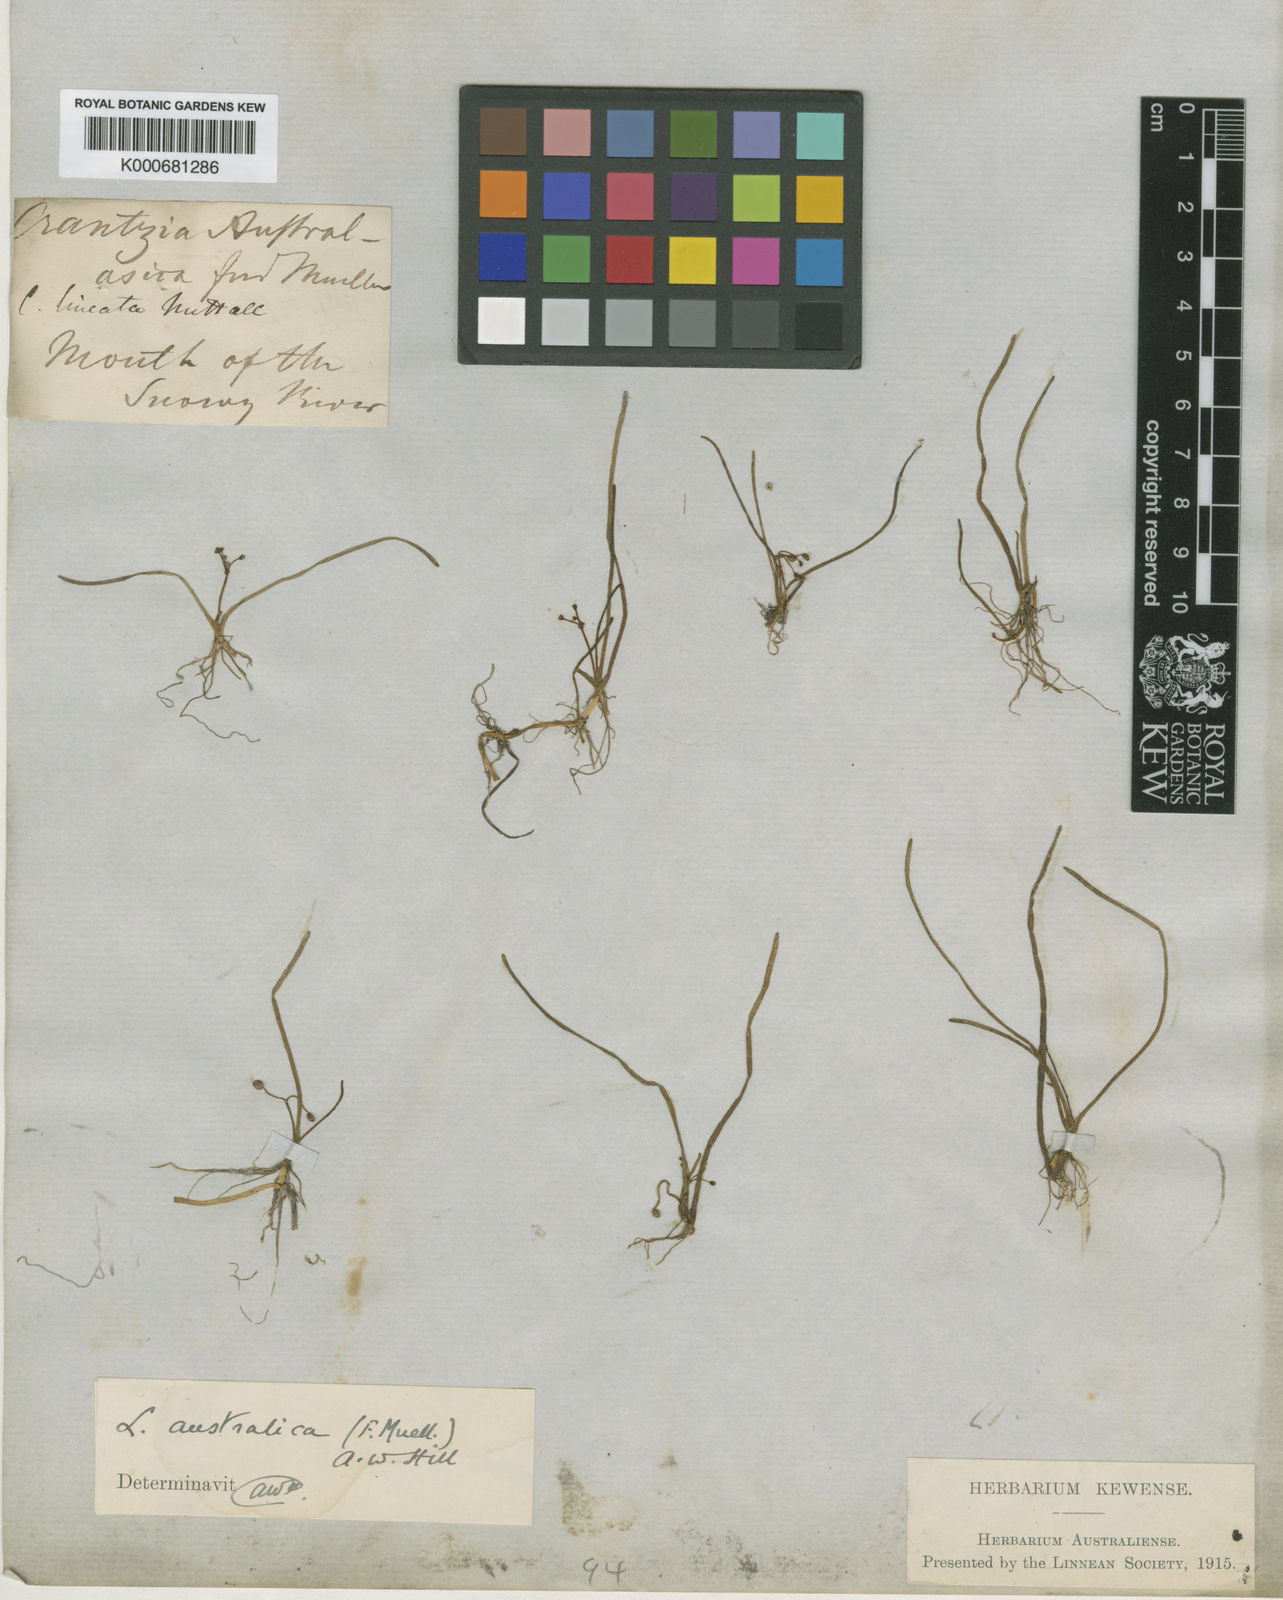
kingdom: Plantae
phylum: Tracheophyta
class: Magnoliopsida
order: Apiales
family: Apiaceae
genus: Lilaeopsis
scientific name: Lilaeopsis polyantha
